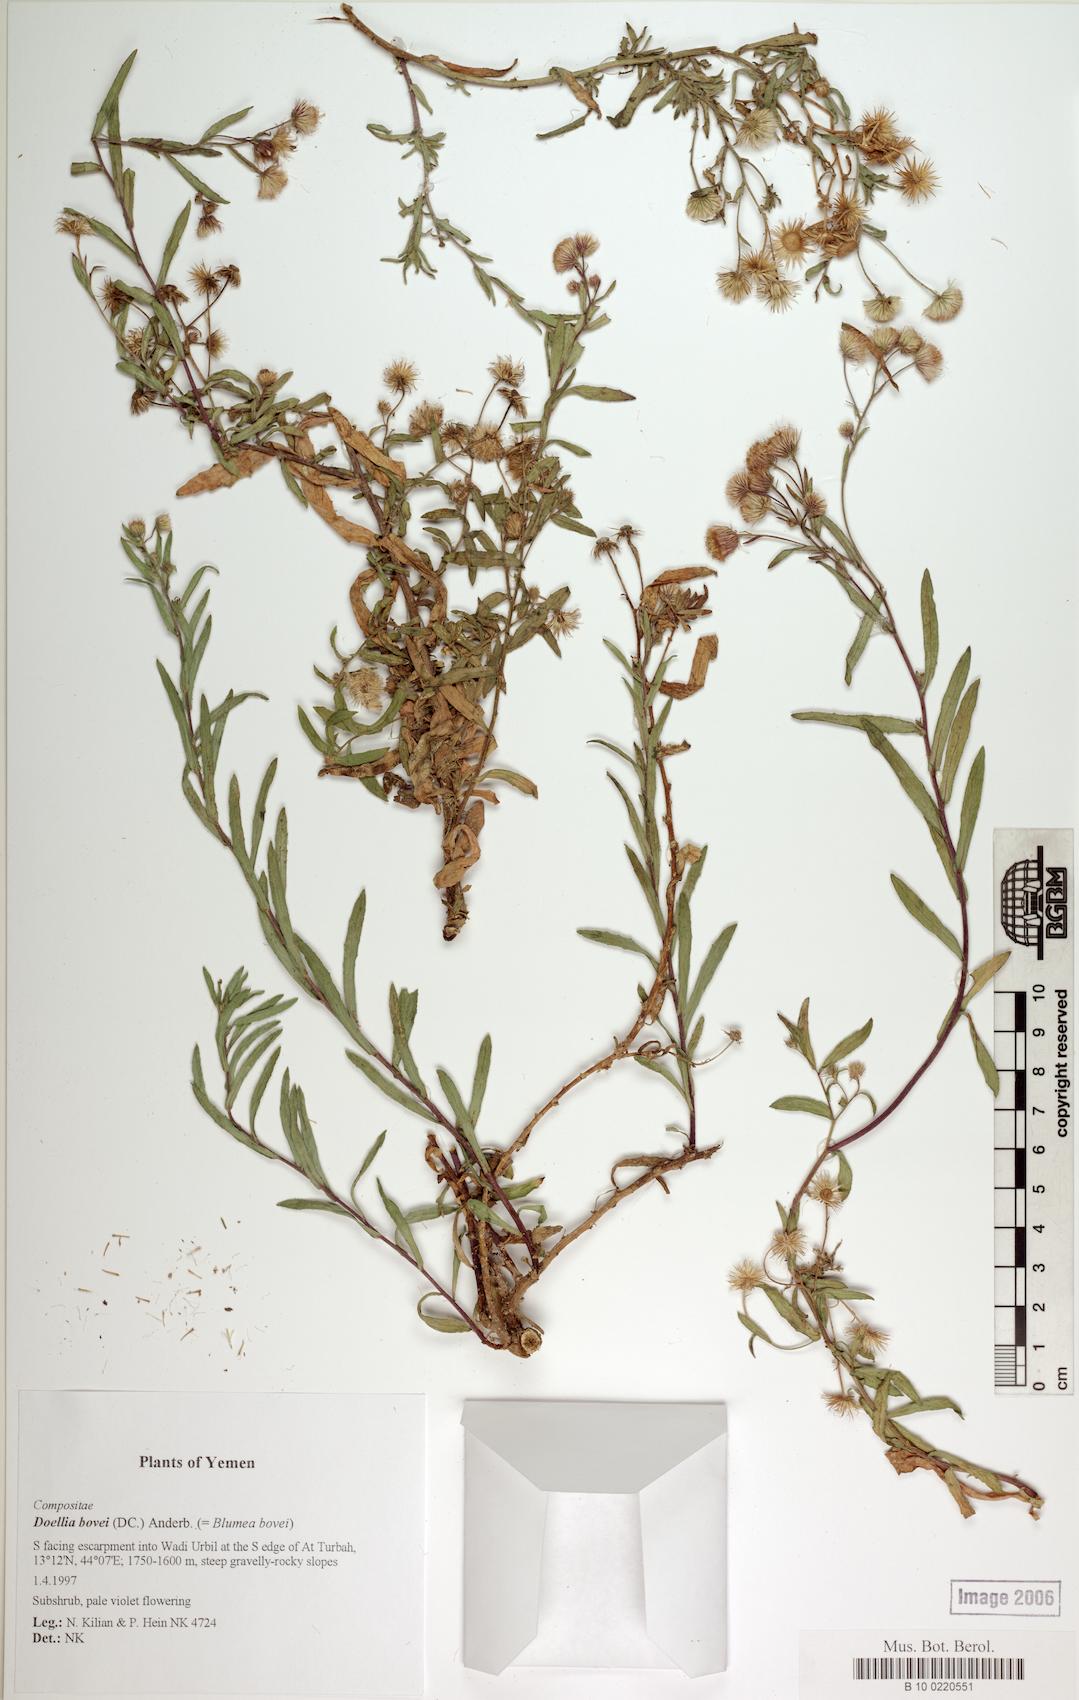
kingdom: Plantae
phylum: Tracheophyta
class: Magnoliopsida
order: Caryophyllales
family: Caryophyllaceae
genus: Stellaria
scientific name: Stellaria media
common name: Common chickweed
